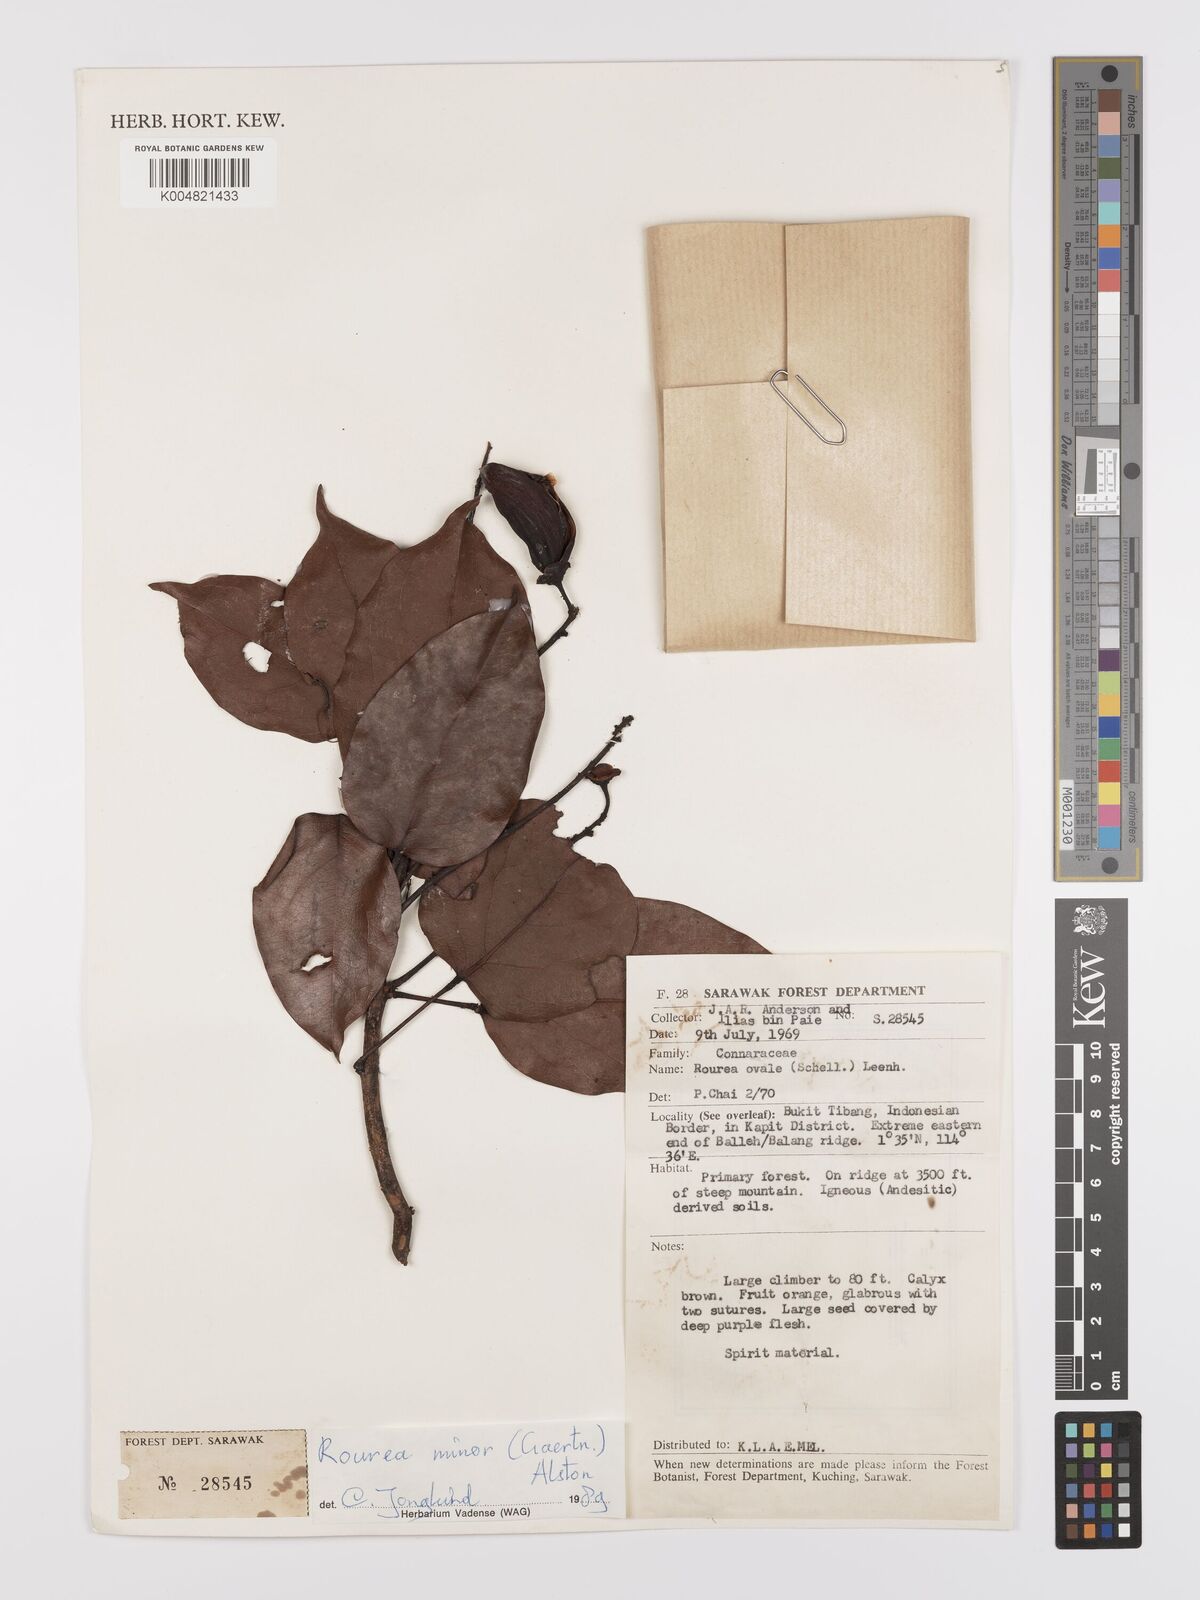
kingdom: Plantae
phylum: Tracheophyta
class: Magnoliopsida
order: Oxalidales
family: Connaraceae
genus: Rourea
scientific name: Rourea ovalis
